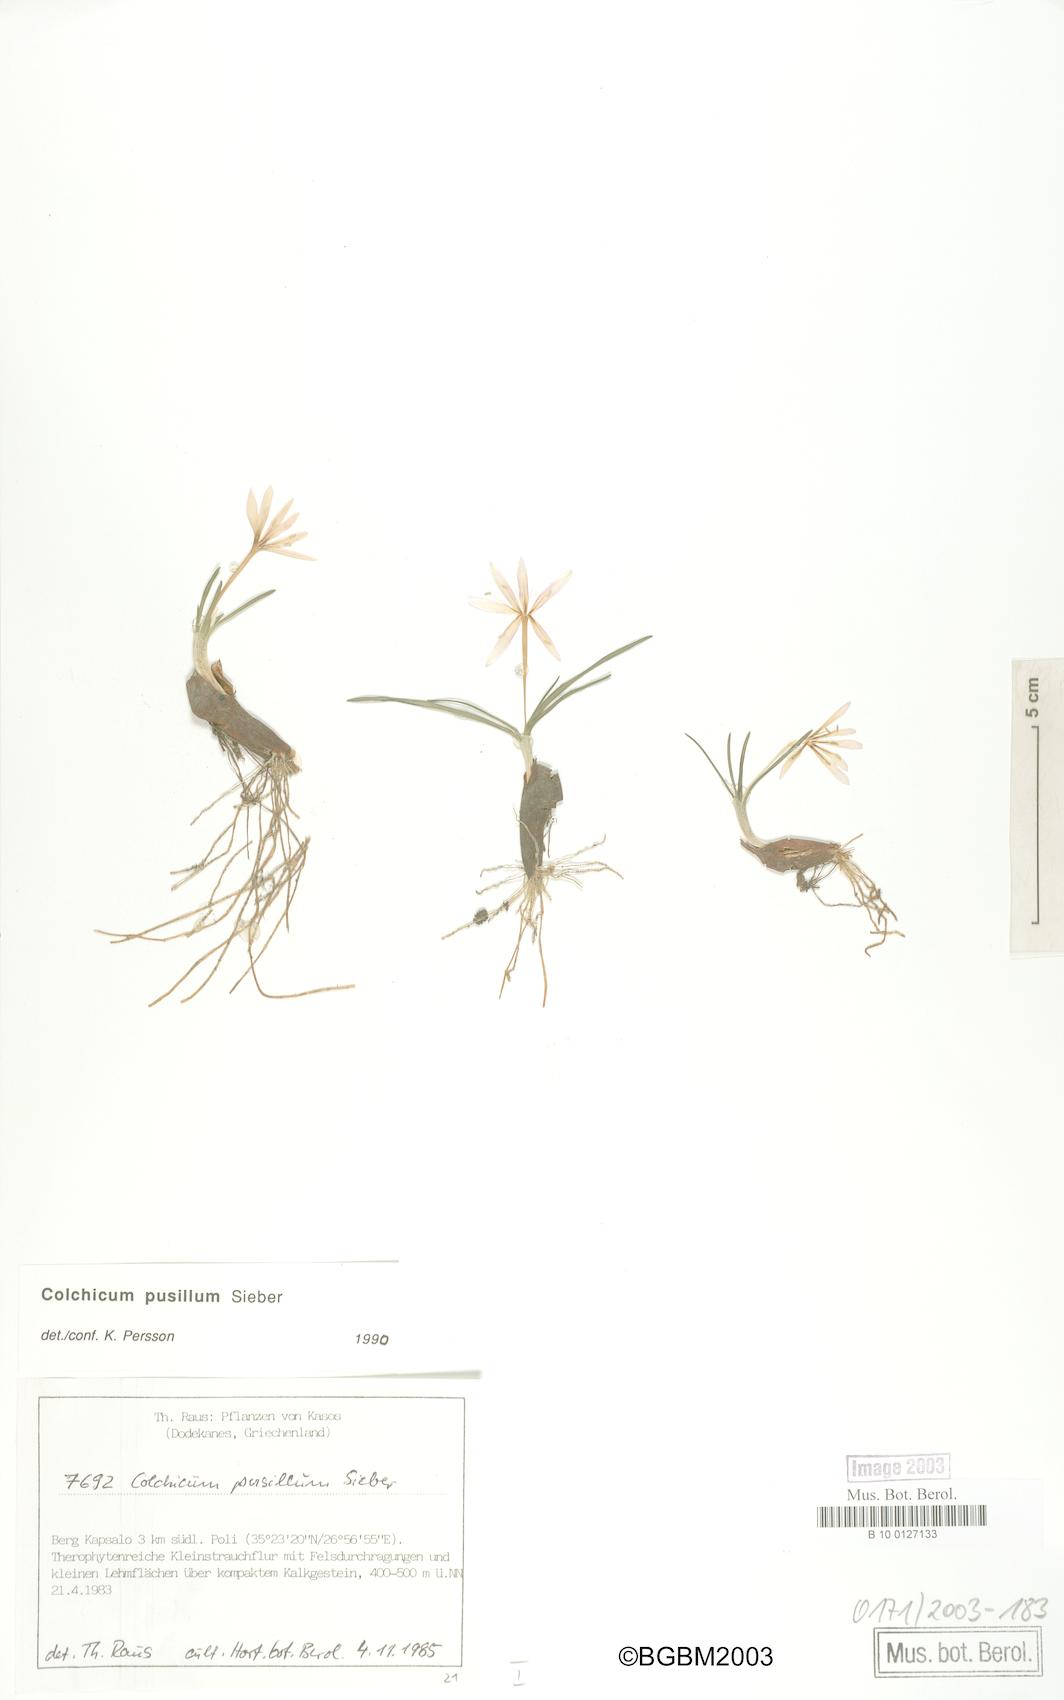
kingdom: Plantae
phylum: Tracheophyta
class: Liliopsida
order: Liliales
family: Colchicaceae
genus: Colchicum
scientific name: Colchicum pusillum
